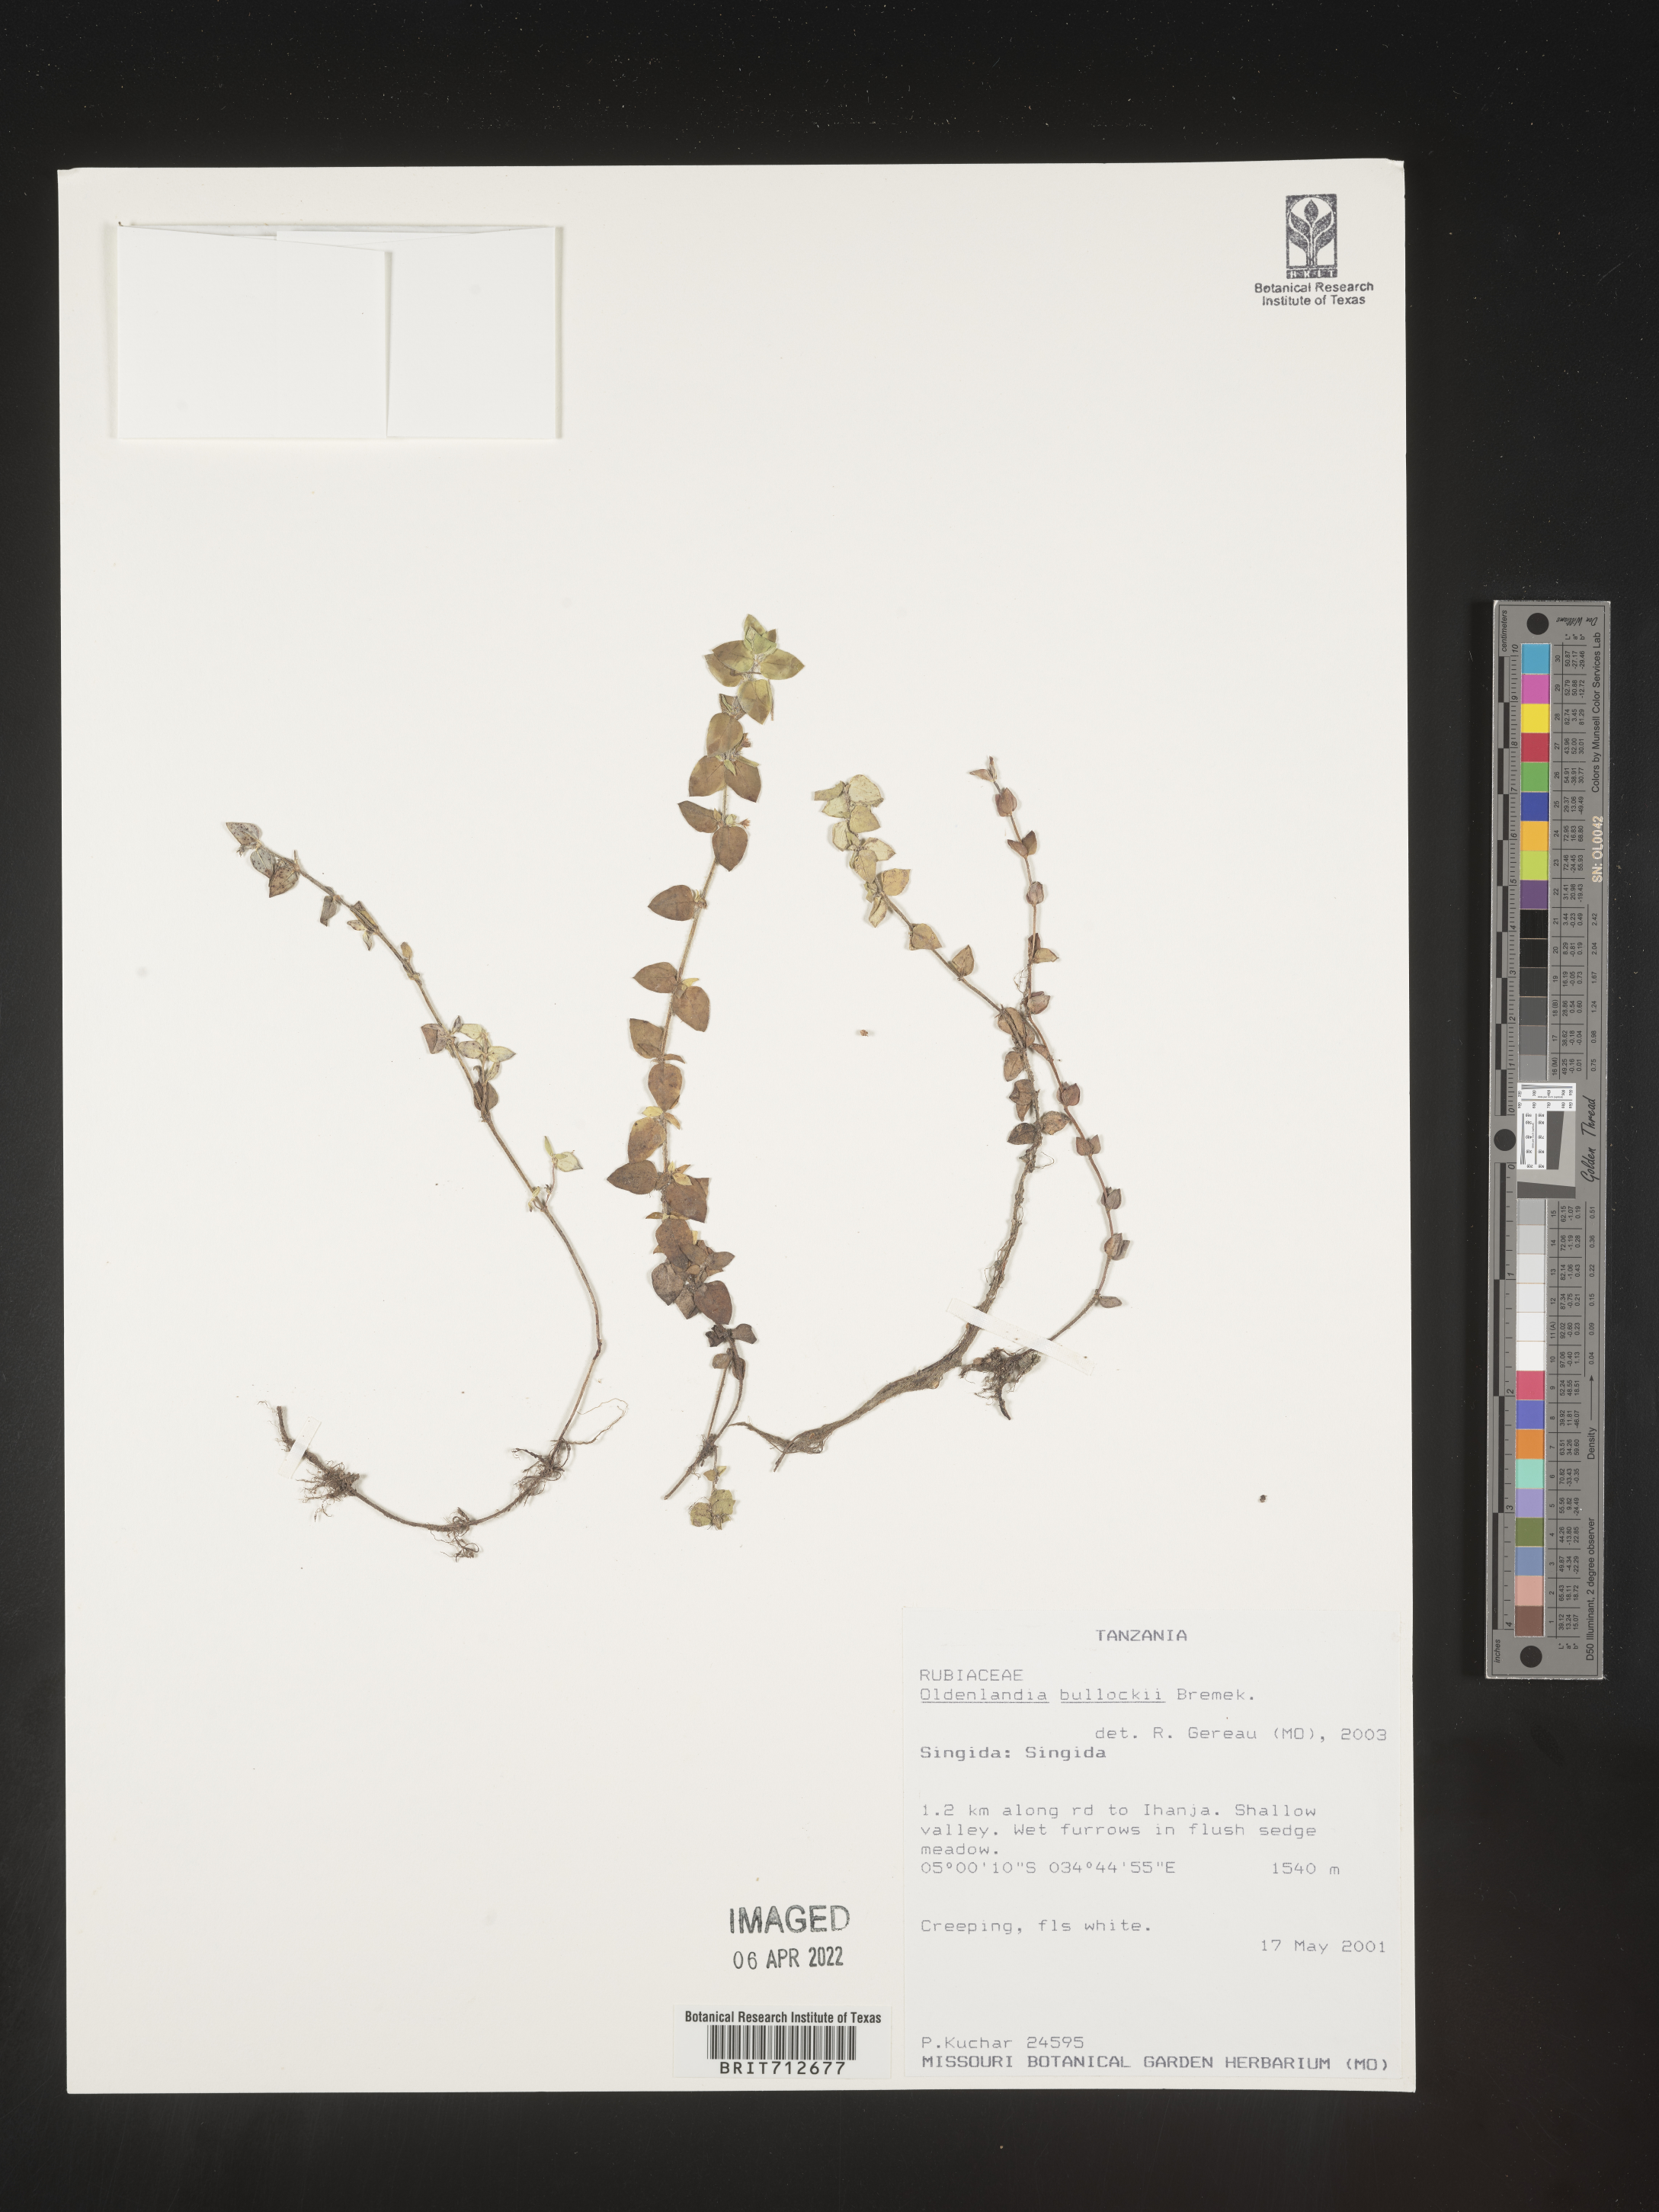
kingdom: Plantae
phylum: Tracheophyta
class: Magnoliopsida
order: Gentianales
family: Rubiaceae
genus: Oldenlandia
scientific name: Oldenlandia
